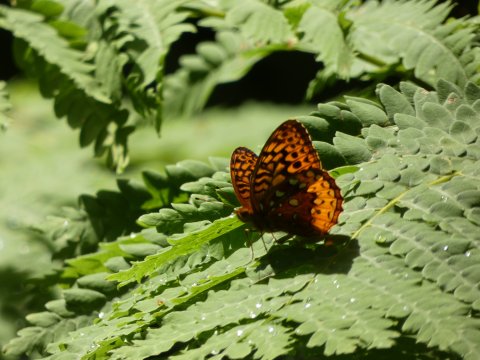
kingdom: Animalia
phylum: Arthropoda
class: Insecta
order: Lepidoptera
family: Nymphalidae
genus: Speyeria
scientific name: Speyeria cybele
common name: Great Spangled Fritillary
